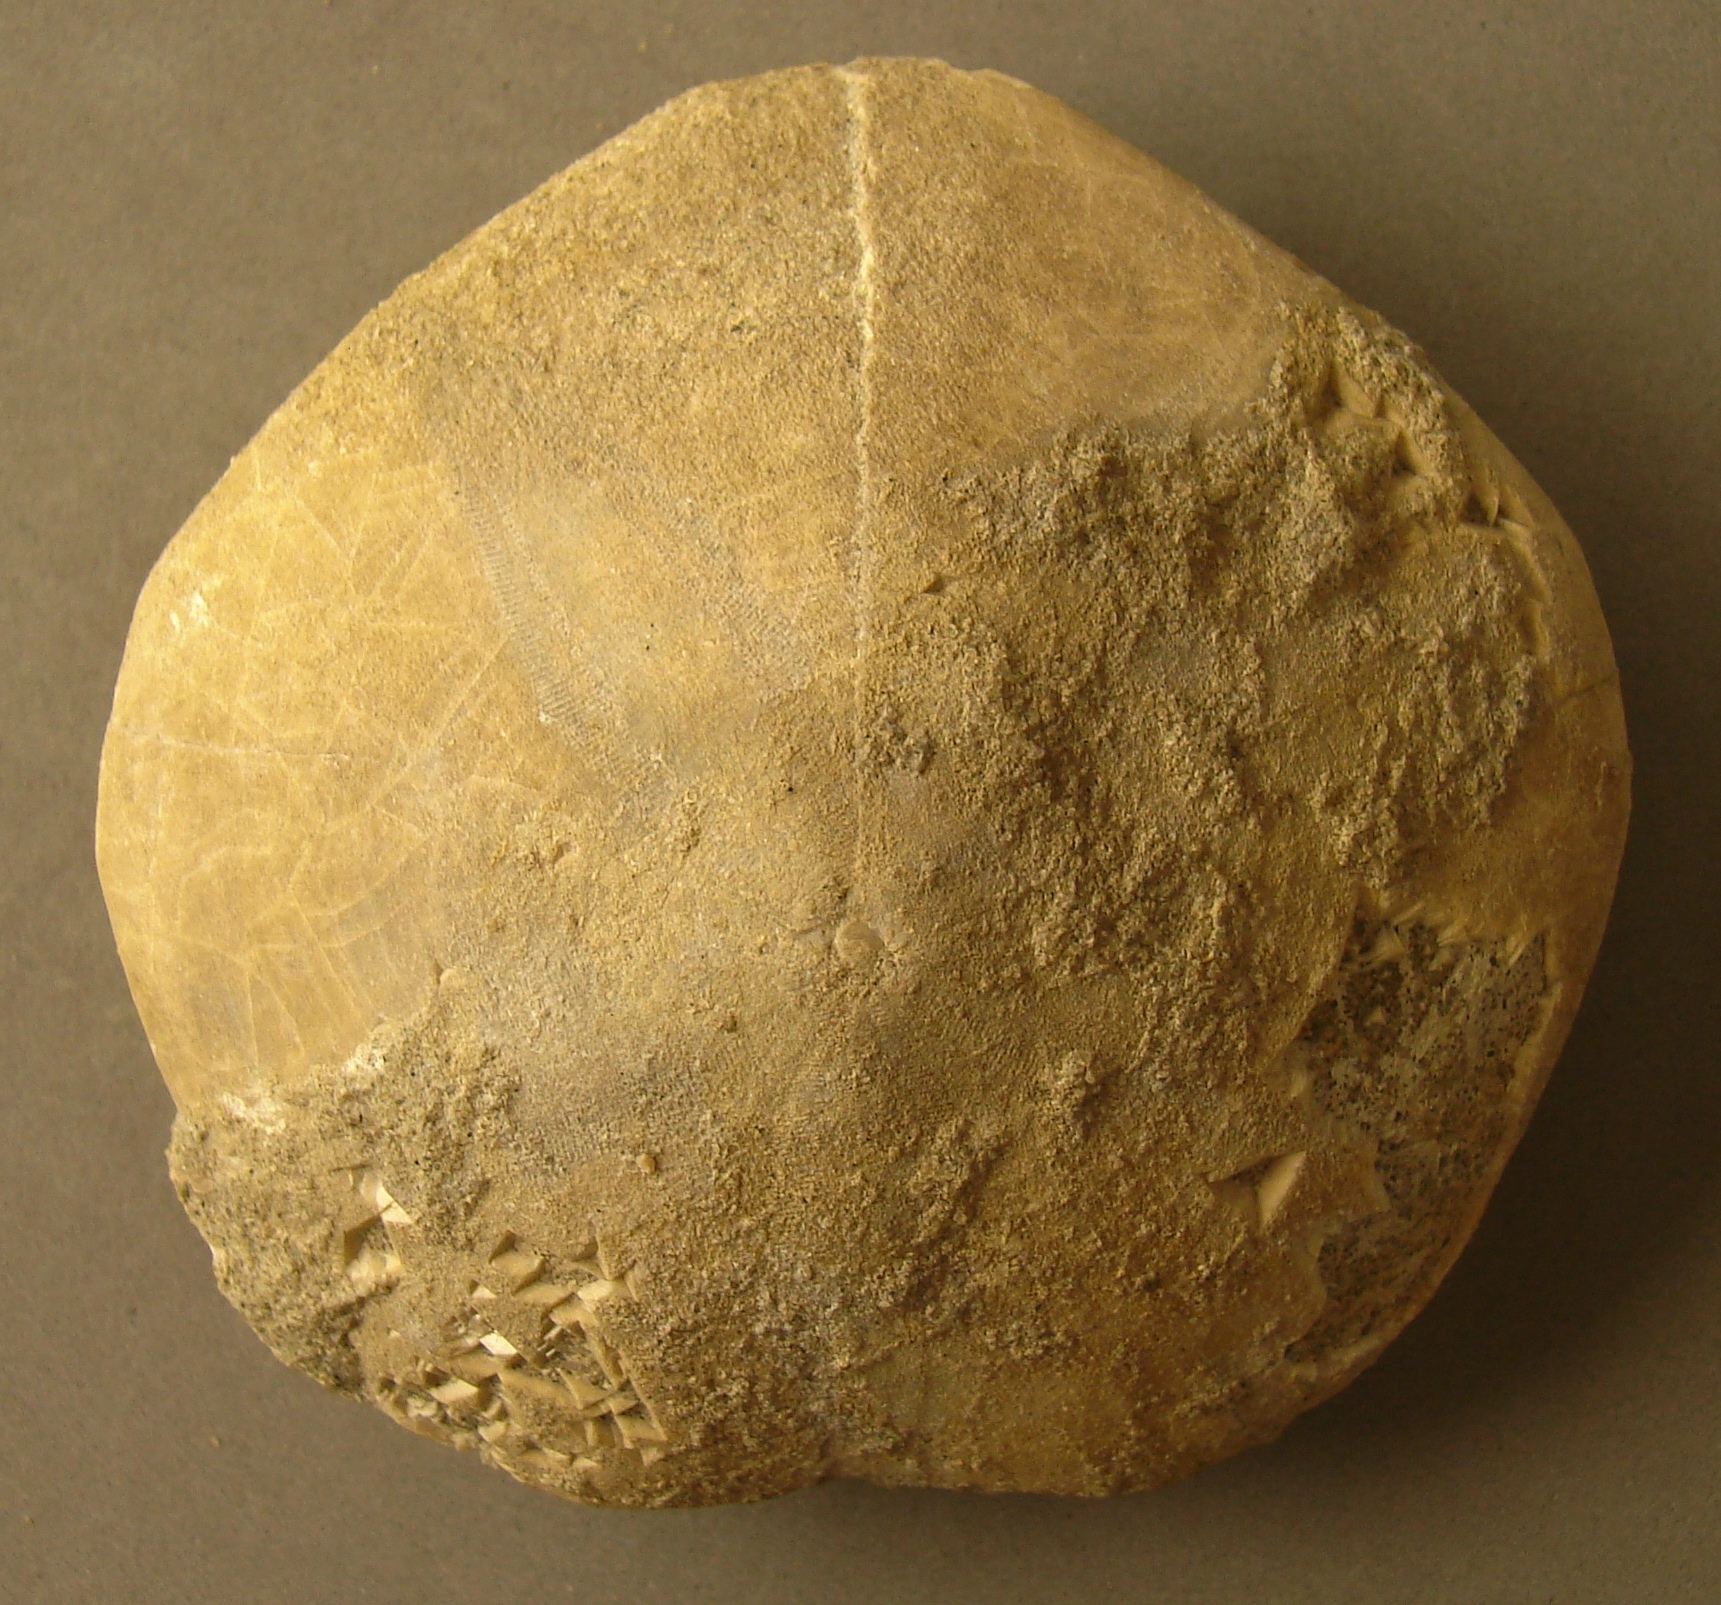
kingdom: Animalia
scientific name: Animalia
